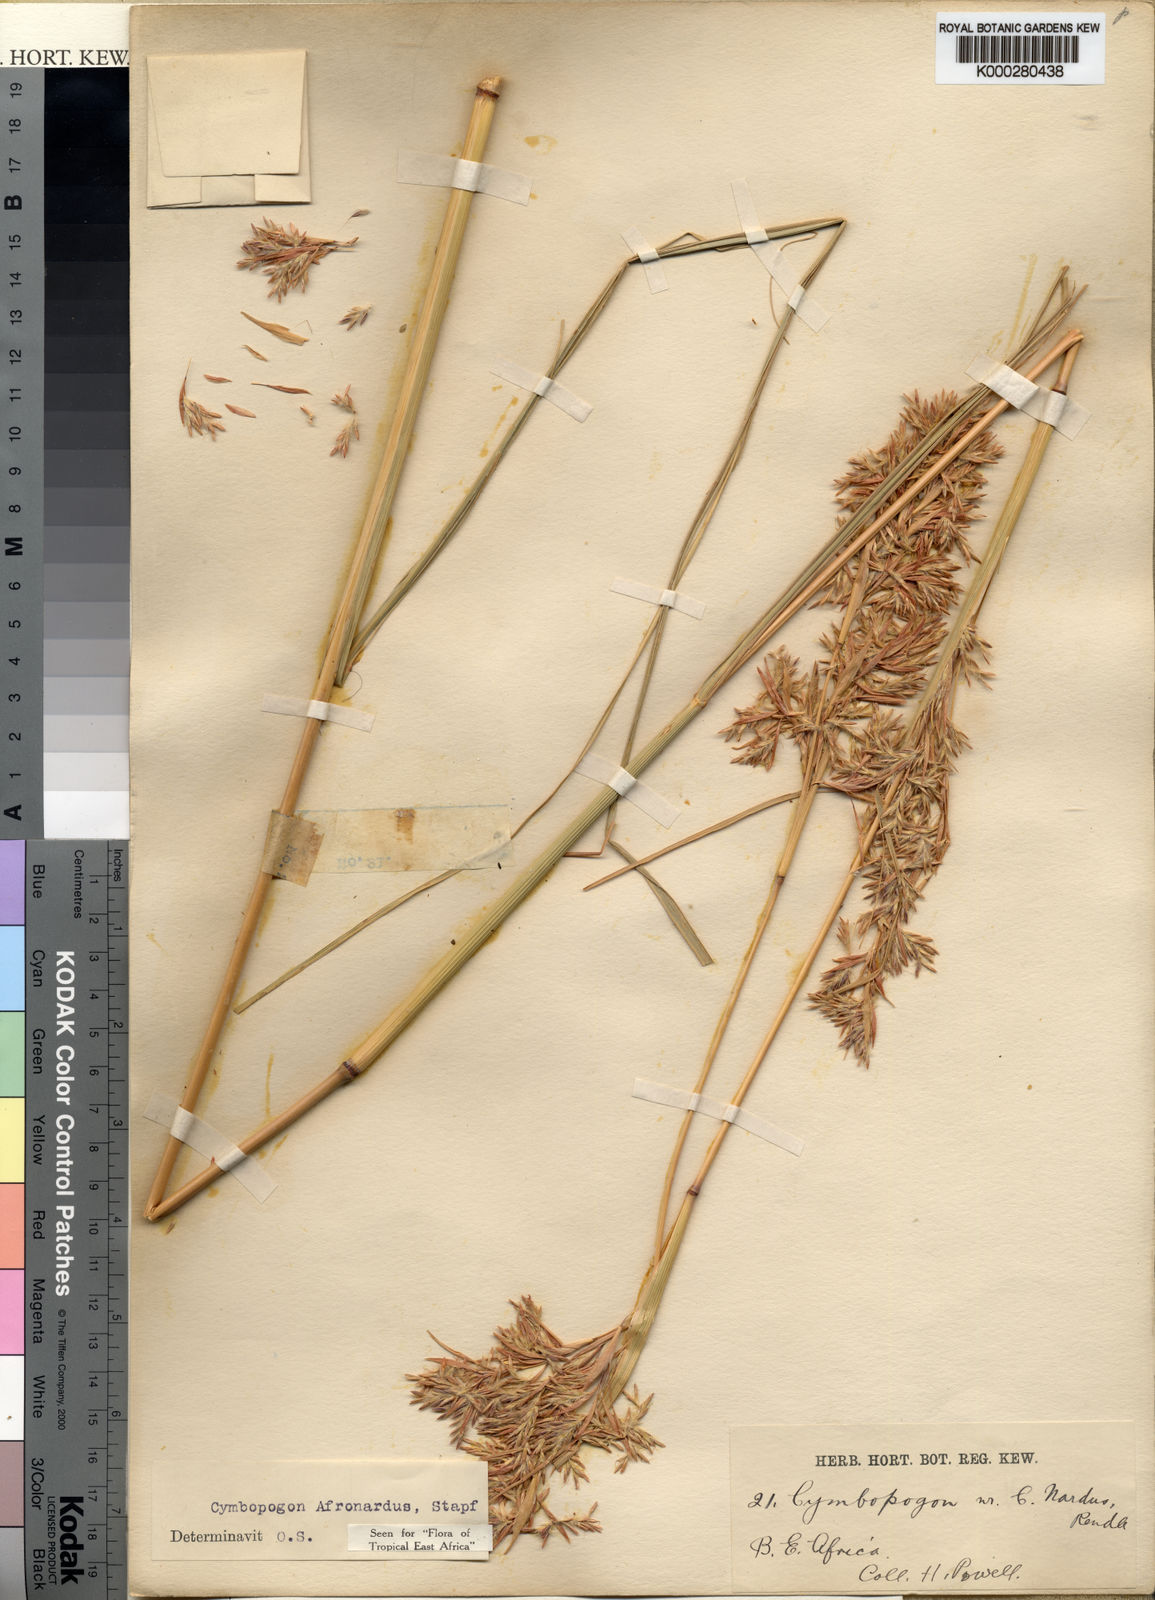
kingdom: Plantae
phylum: Tracheophyta
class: Liliopsida
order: Poales
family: Poaceae
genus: Cymbopogon
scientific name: Cymbopogon nardus
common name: Giant turpentine grass
